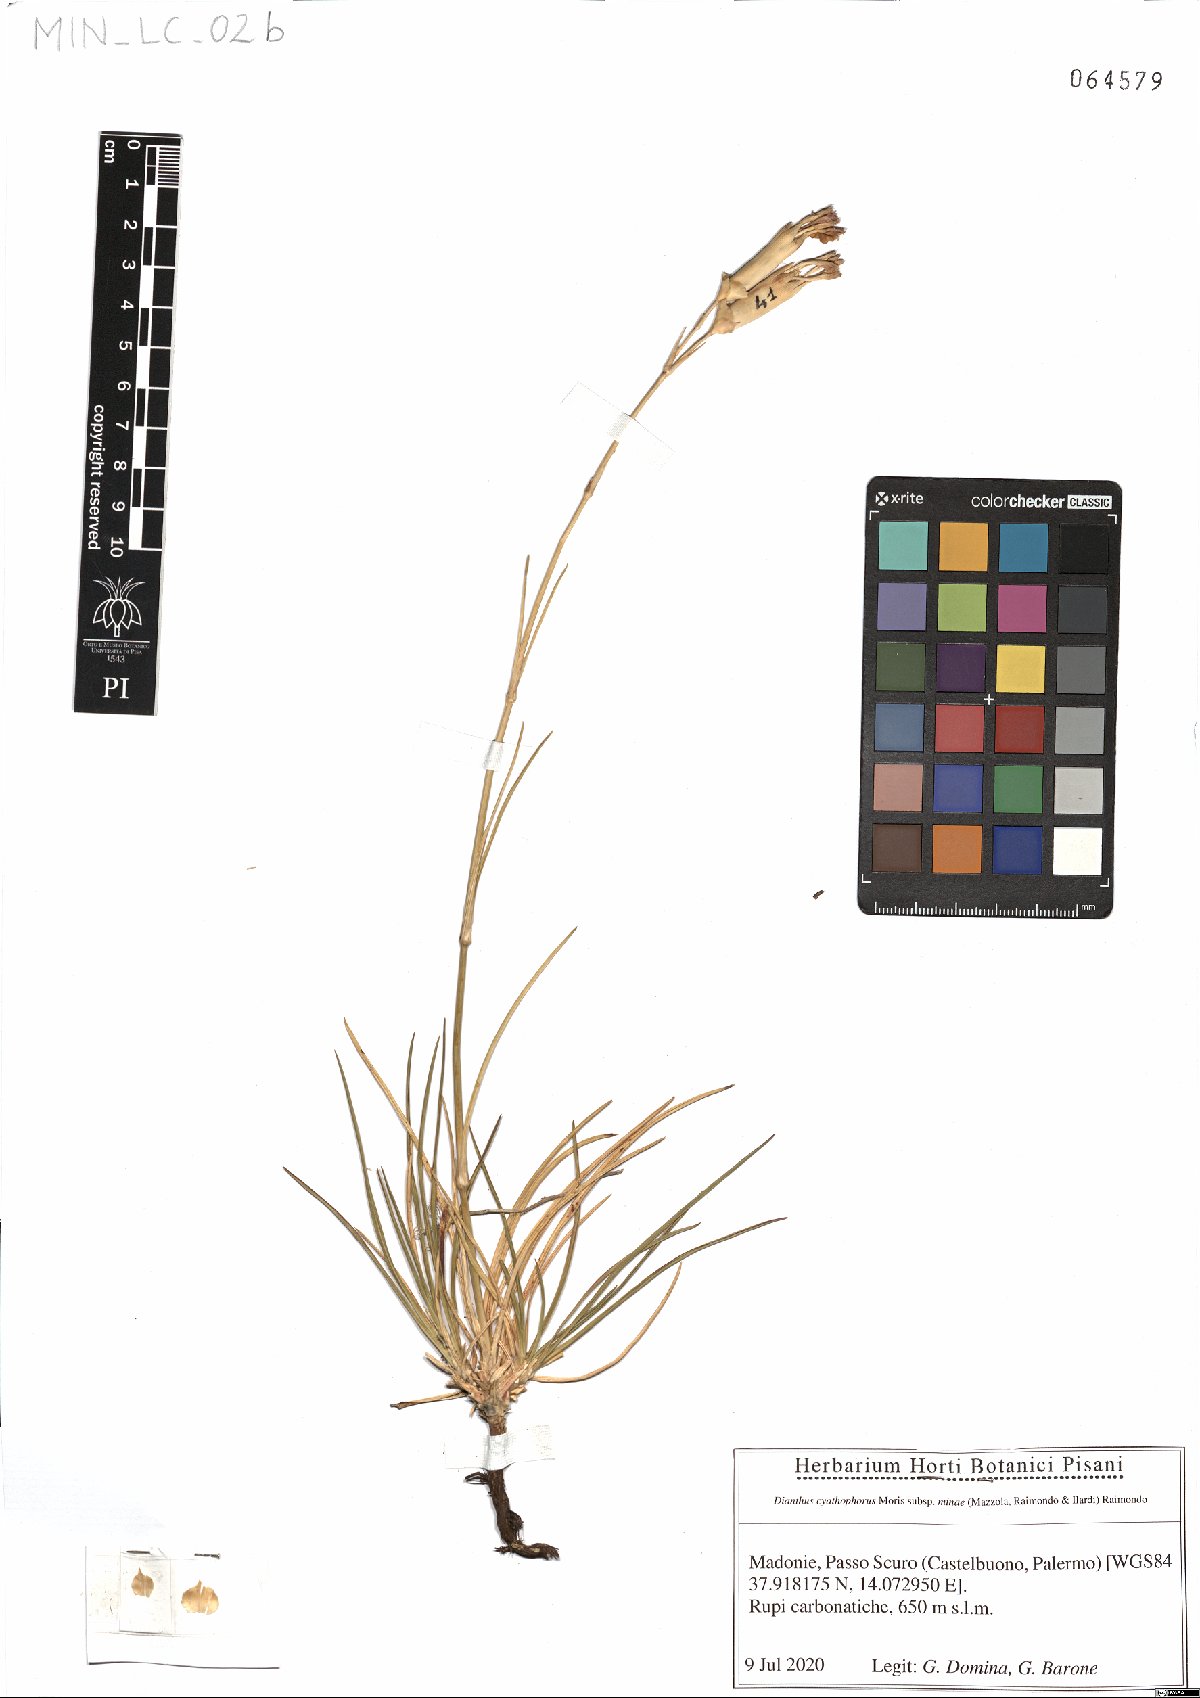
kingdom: Plantae
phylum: Tracheophyta
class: Magnoliopsida
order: Caryophyllales
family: Caryophyllaceae
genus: Dianthus
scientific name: Dianthus siculus
